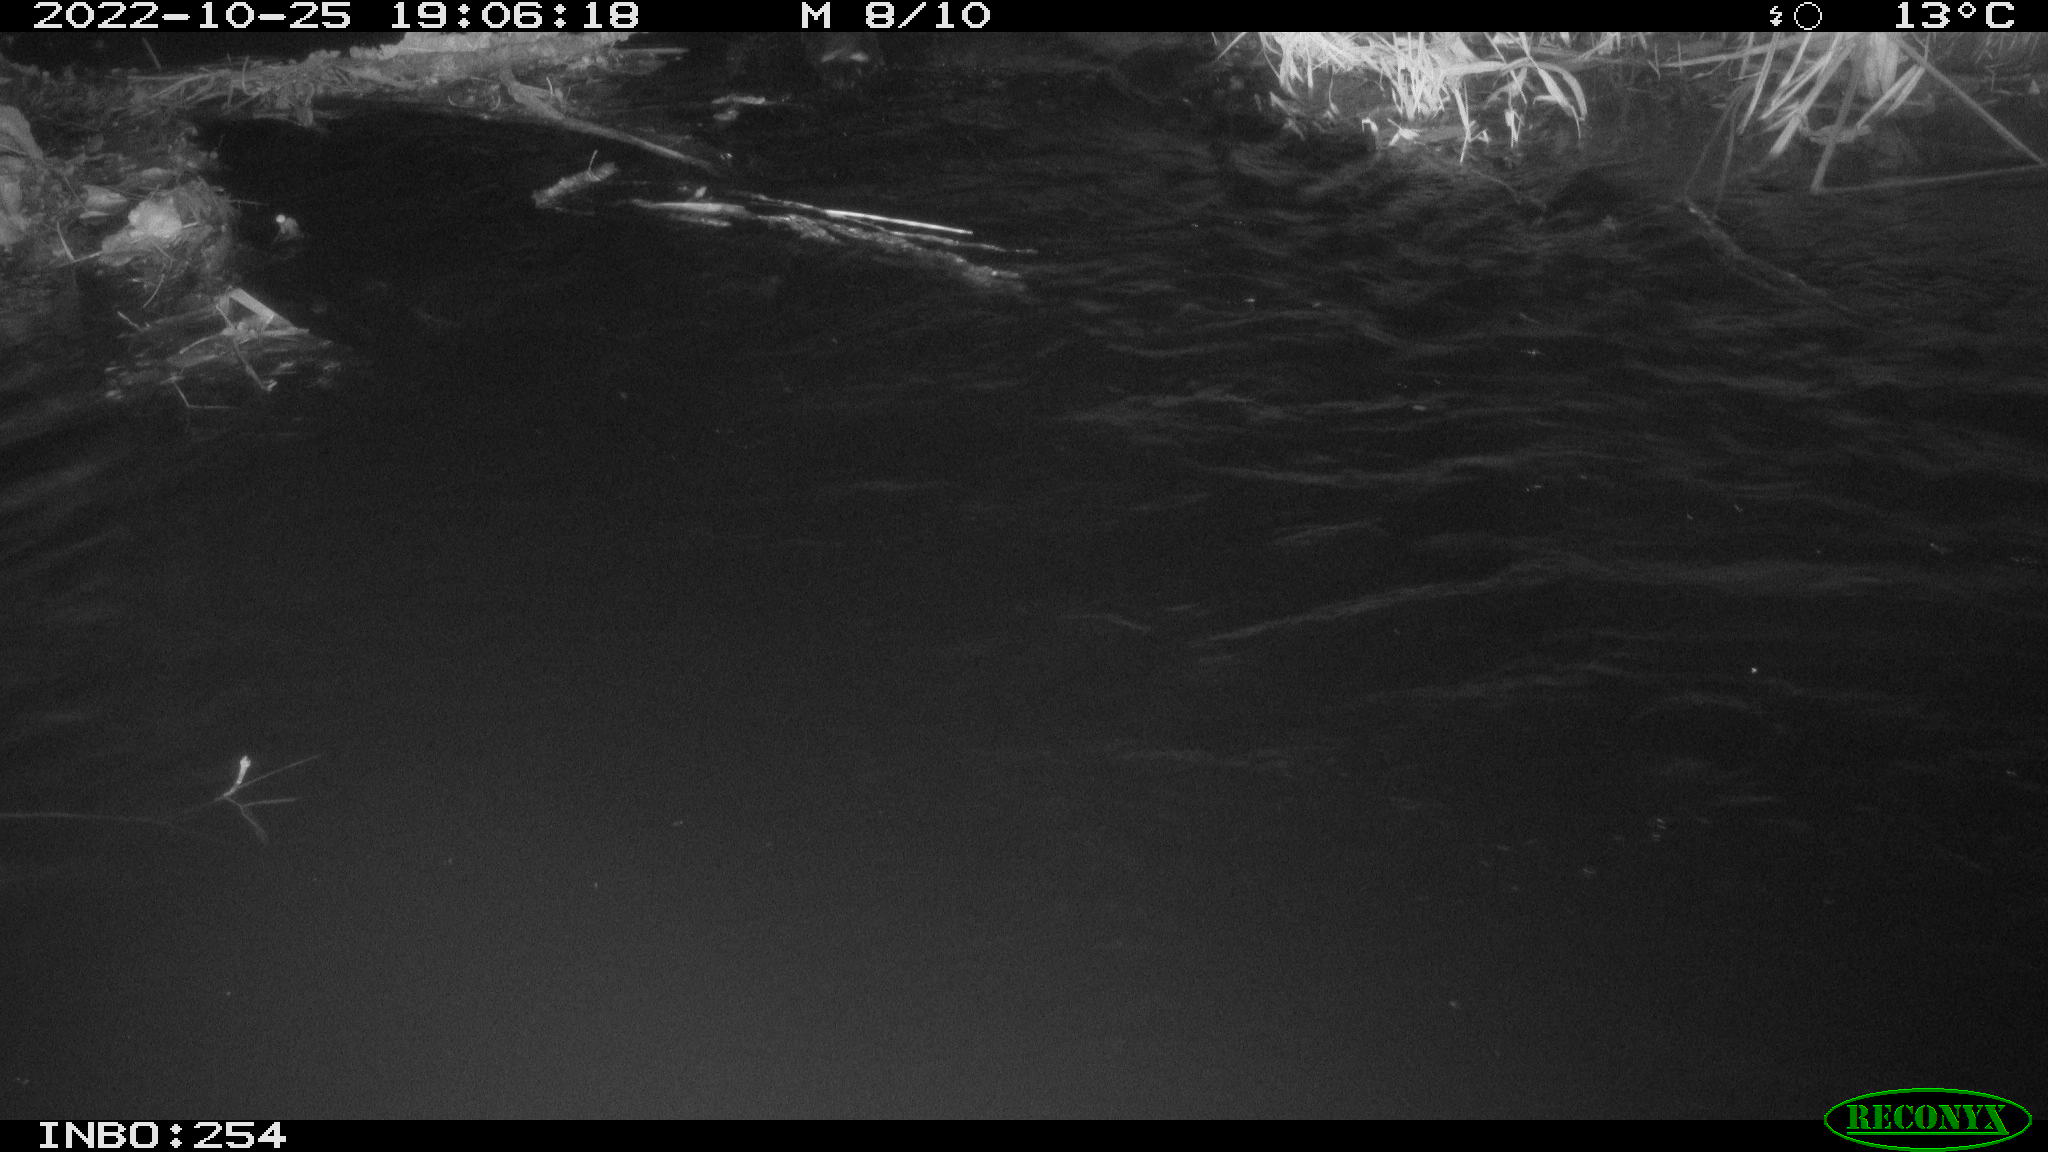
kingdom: Animalia
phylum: Chordata
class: Aves
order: Anseriformes
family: Anatidae
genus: Anas
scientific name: Anas
